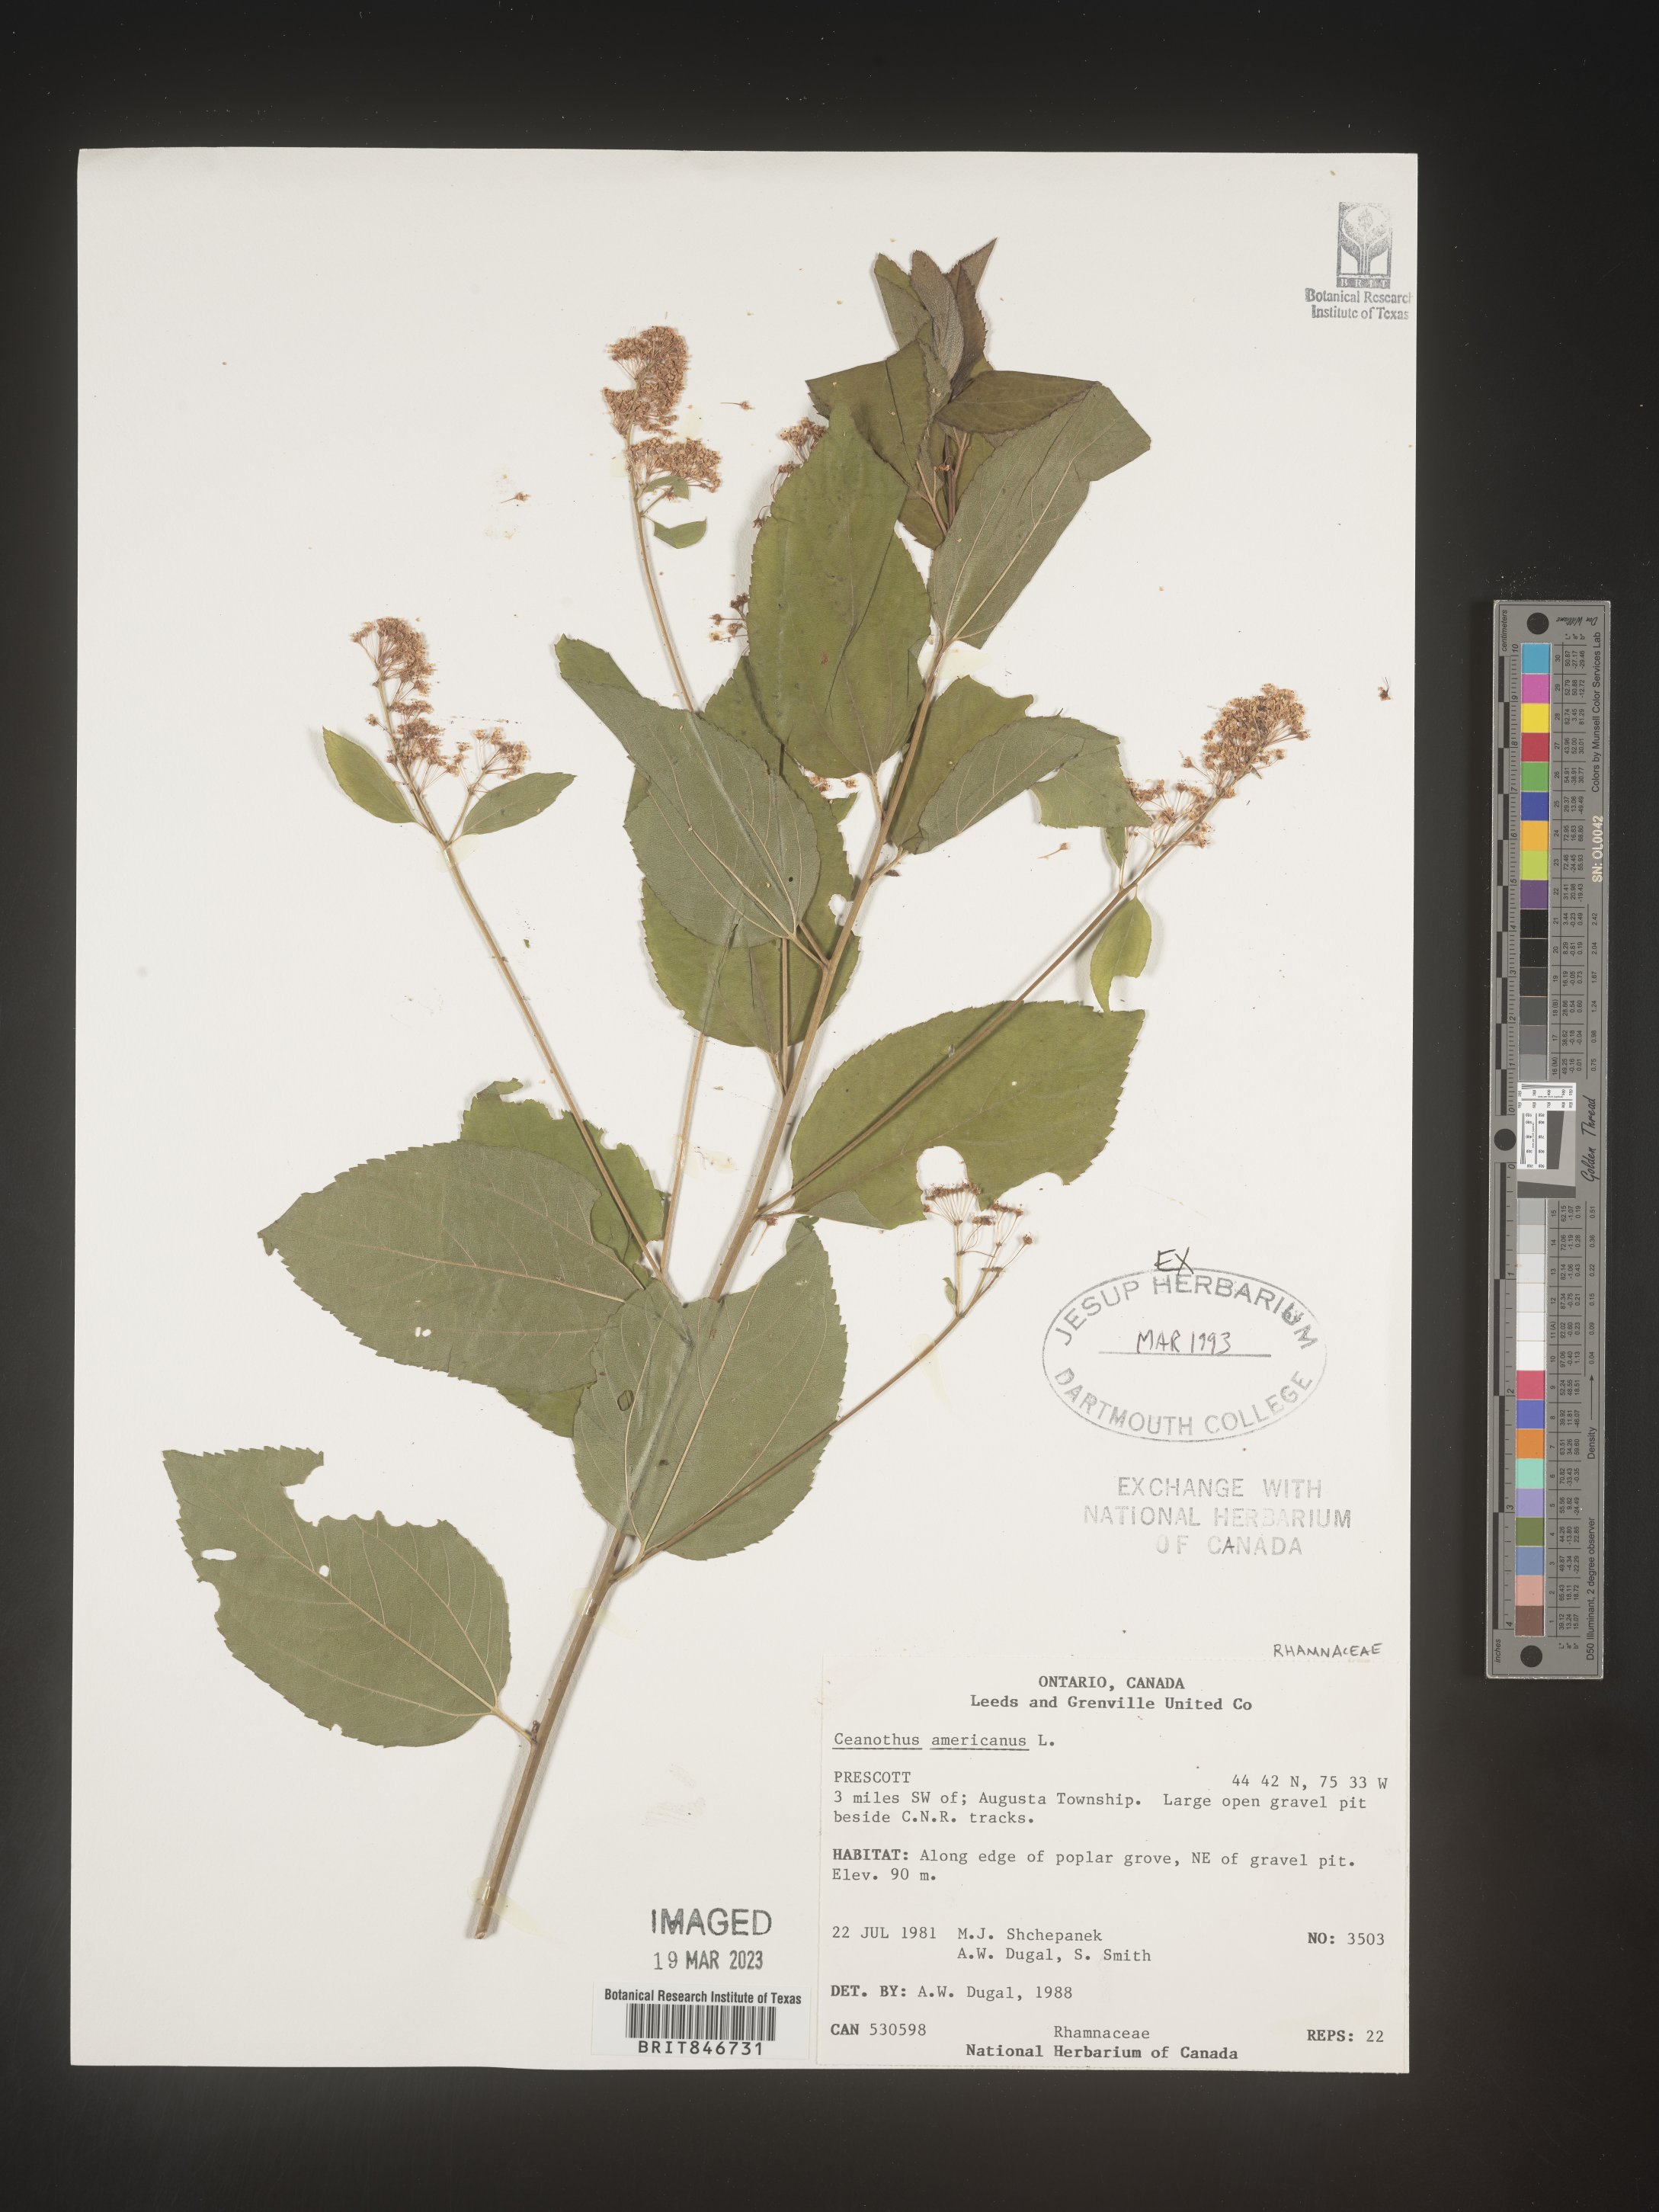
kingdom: Plantae
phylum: Tracheophyta
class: Magnoliopsida
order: Rosales
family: Rhamnaceae
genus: Ceanothus
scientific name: Ceanothus americanus
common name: Redroot
